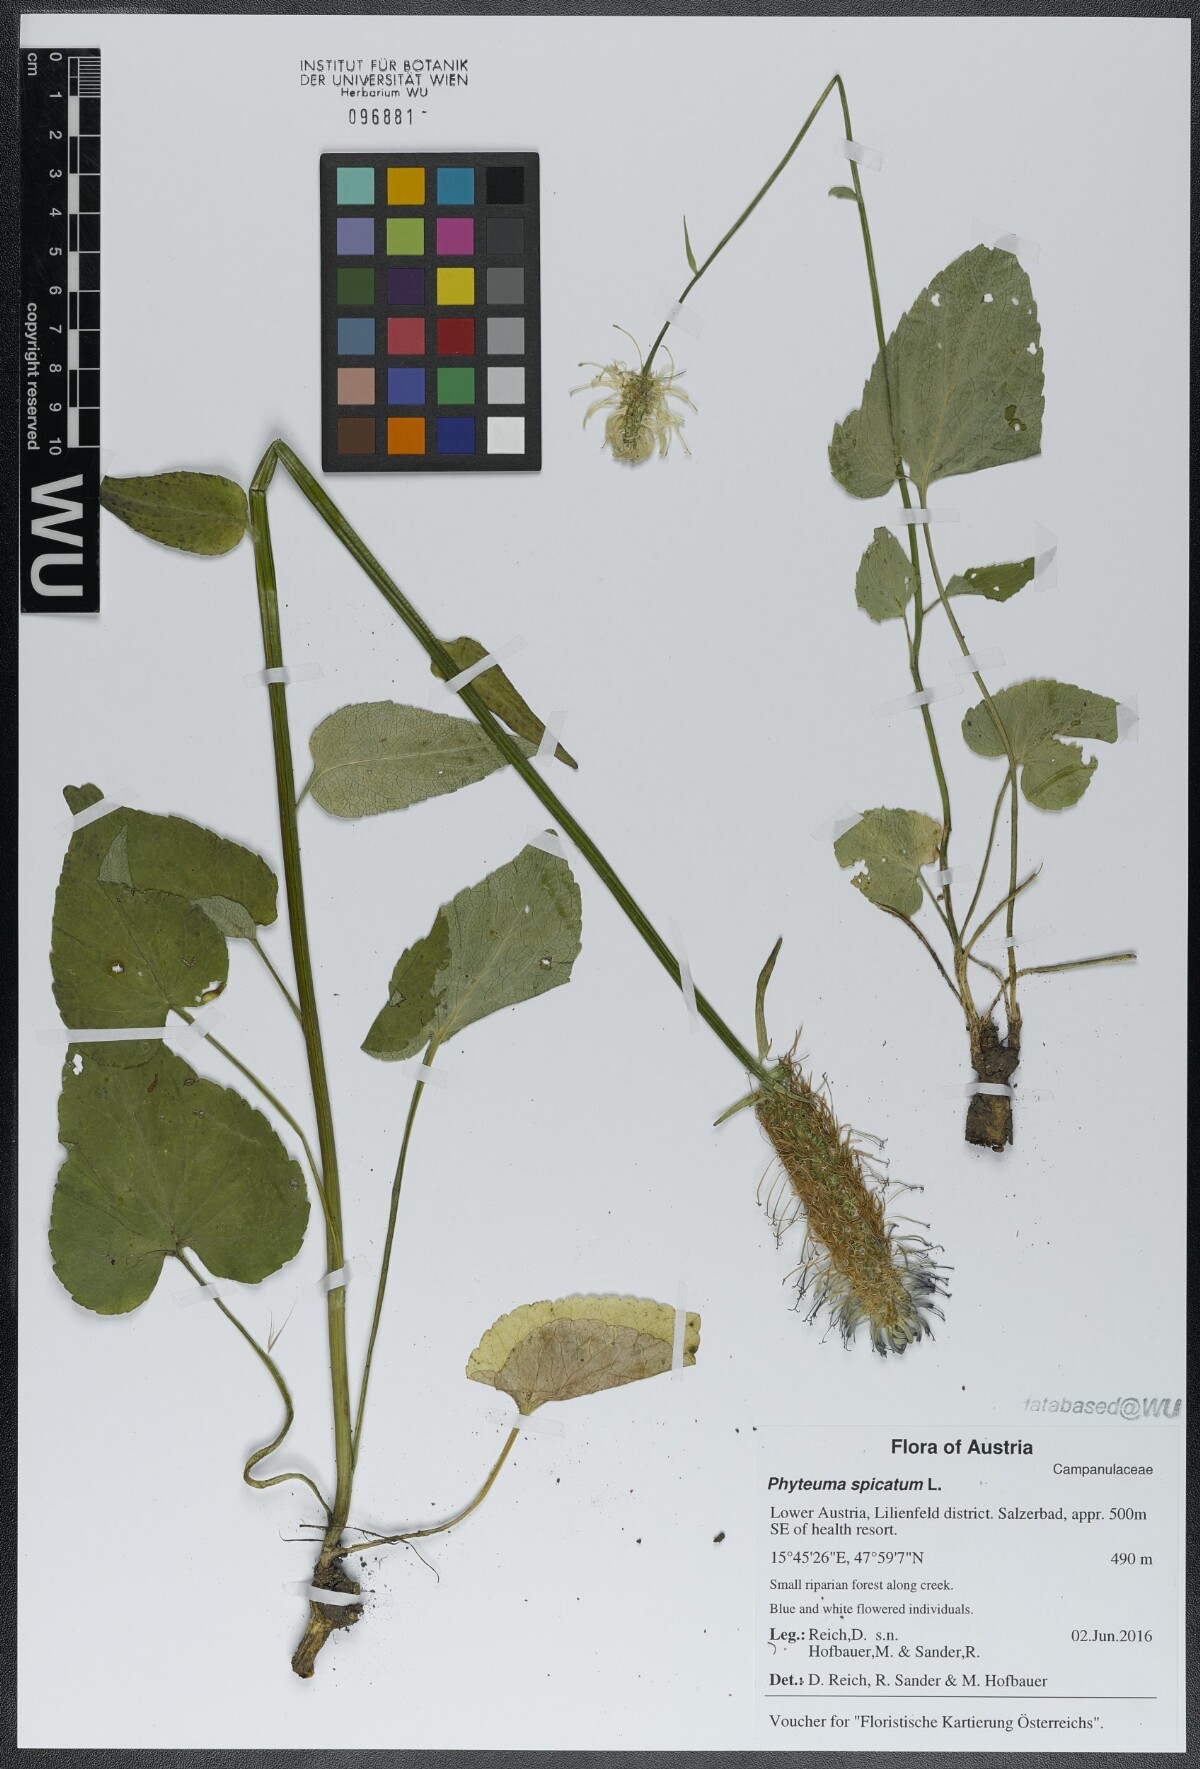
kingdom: Plantae
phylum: Tracheophyta
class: Magnoliopsida
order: Asterales
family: Campanulaceae
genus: Phyteuma
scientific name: Phyteuma spicatum
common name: Spiked rampion
